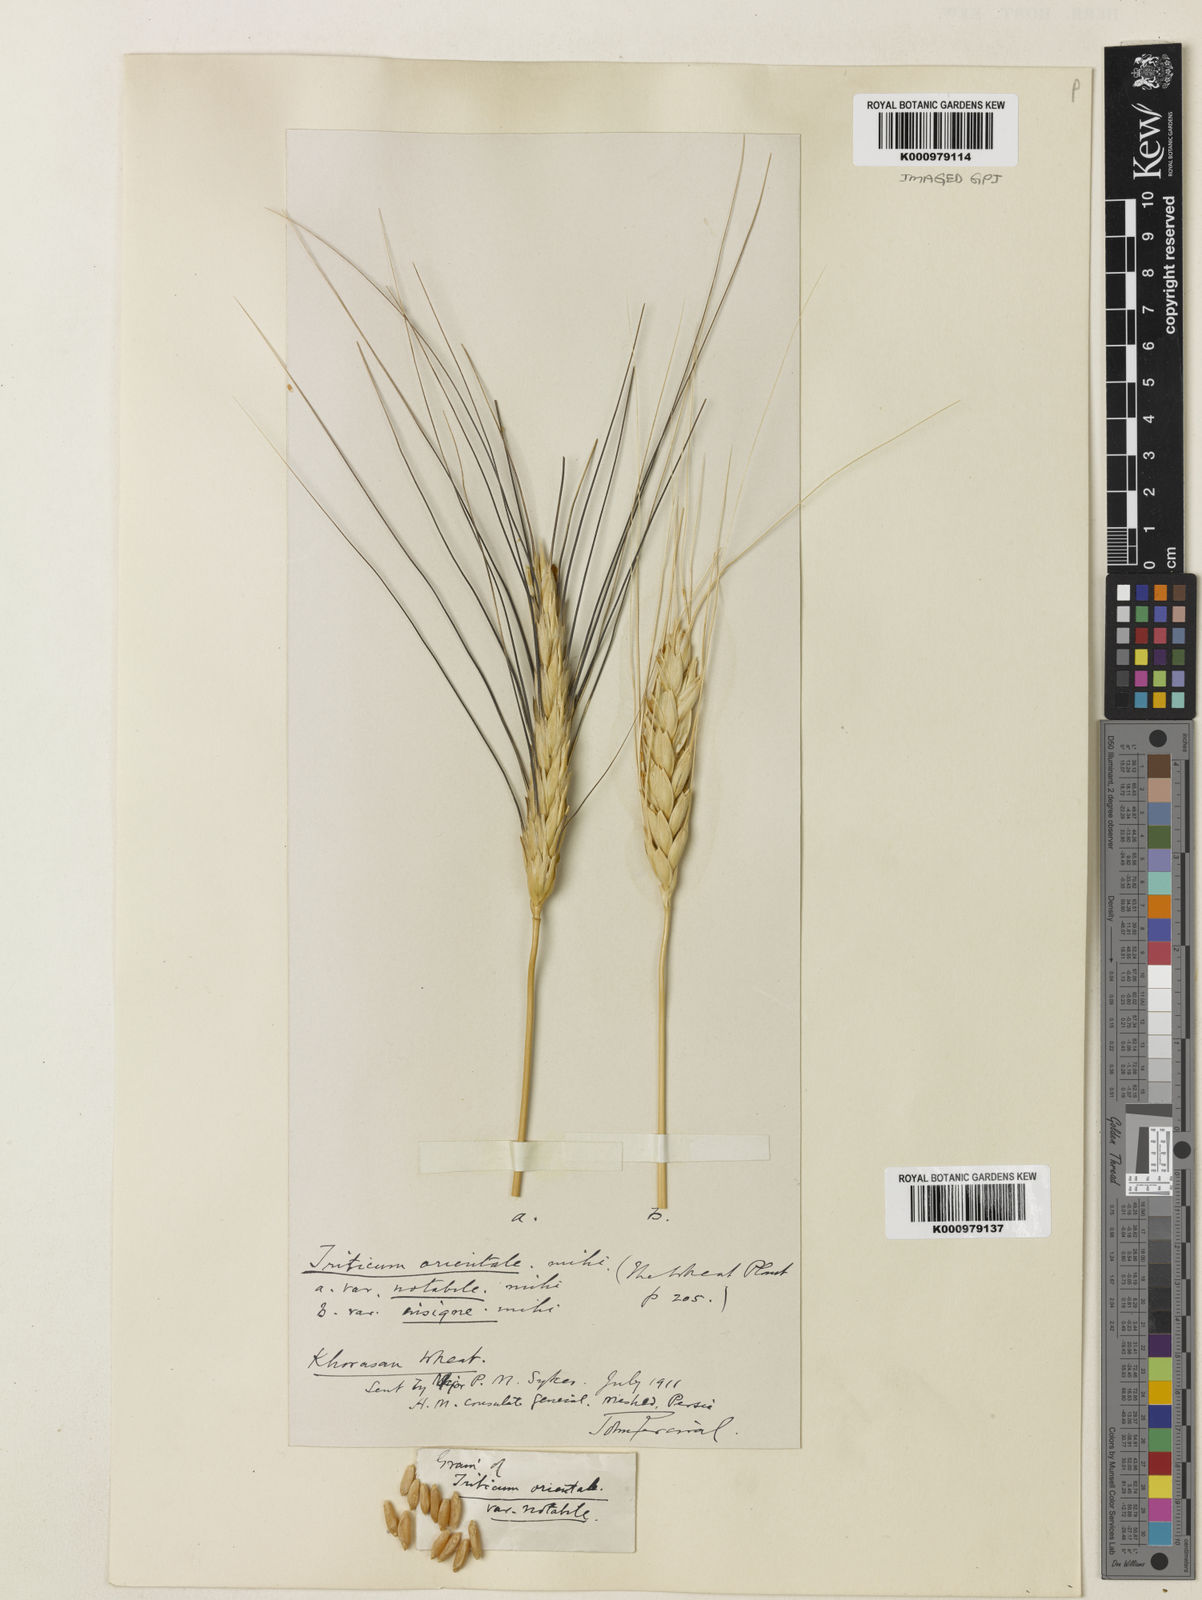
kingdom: Plantae
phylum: Tracheophyta
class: Liliopsida
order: Poales
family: Poaceae
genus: Triticum
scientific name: Triticum turgidum
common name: Rivet wheat
